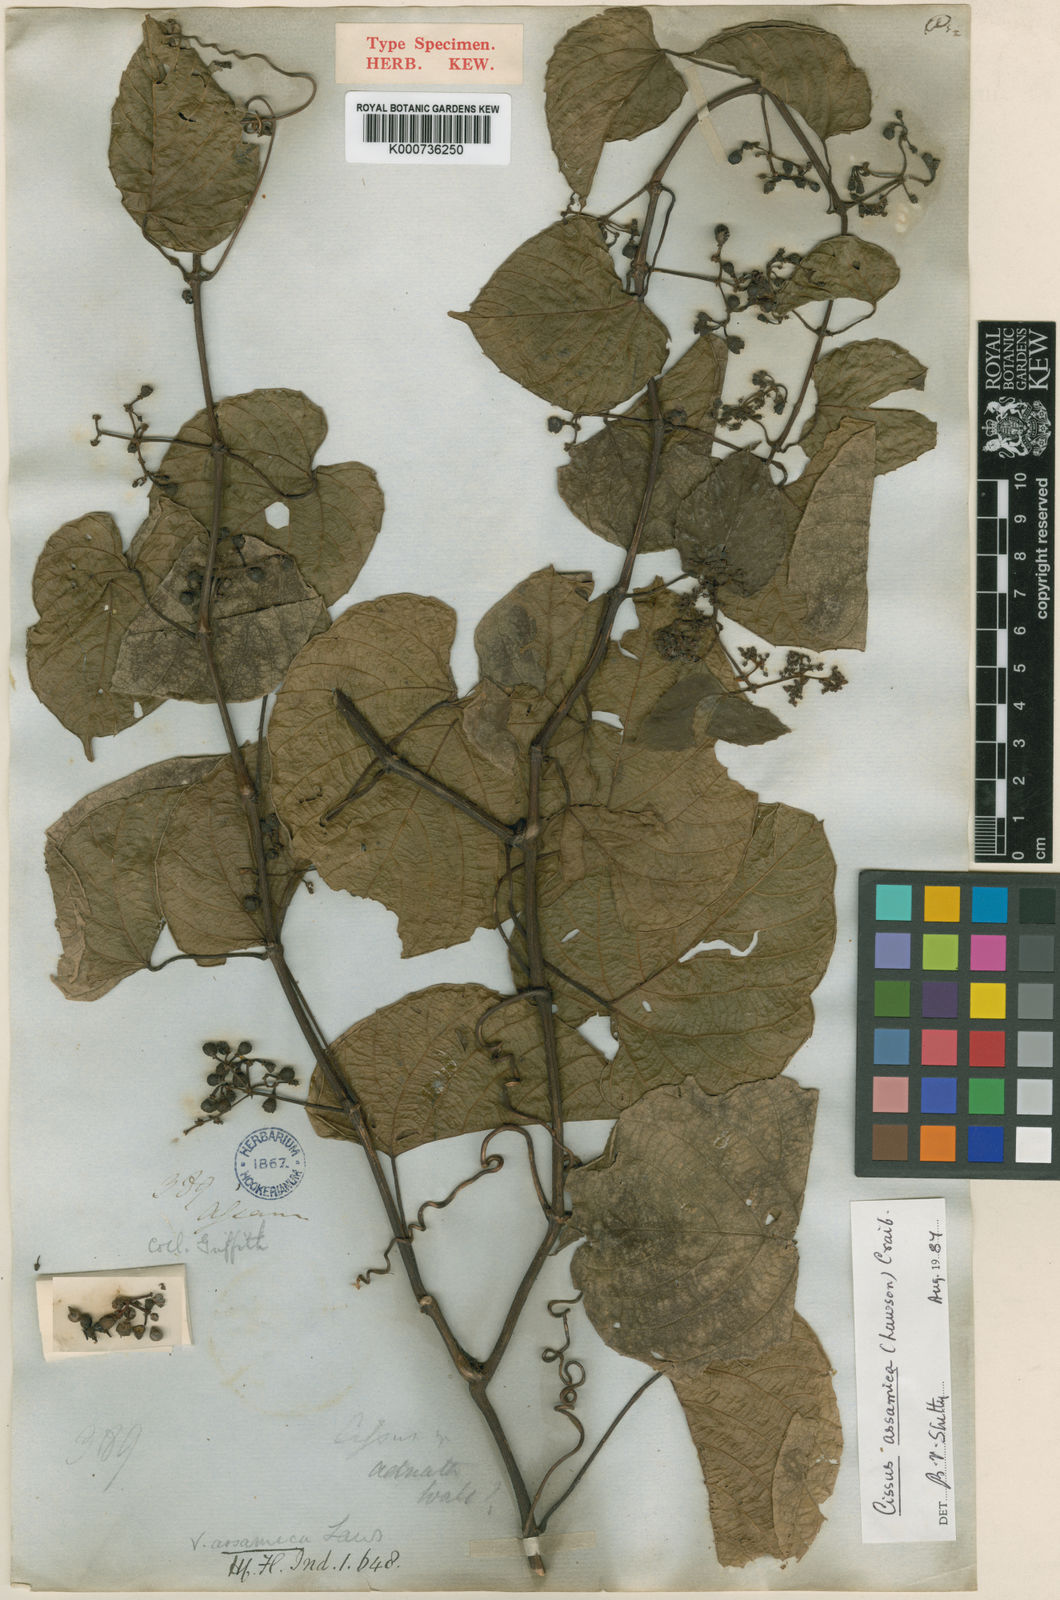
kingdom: Plantae
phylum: Tracheophyta
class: Magnoliopsida
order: Vitales
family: Vitaceae
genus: Cissus
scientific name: Cissus assamica
